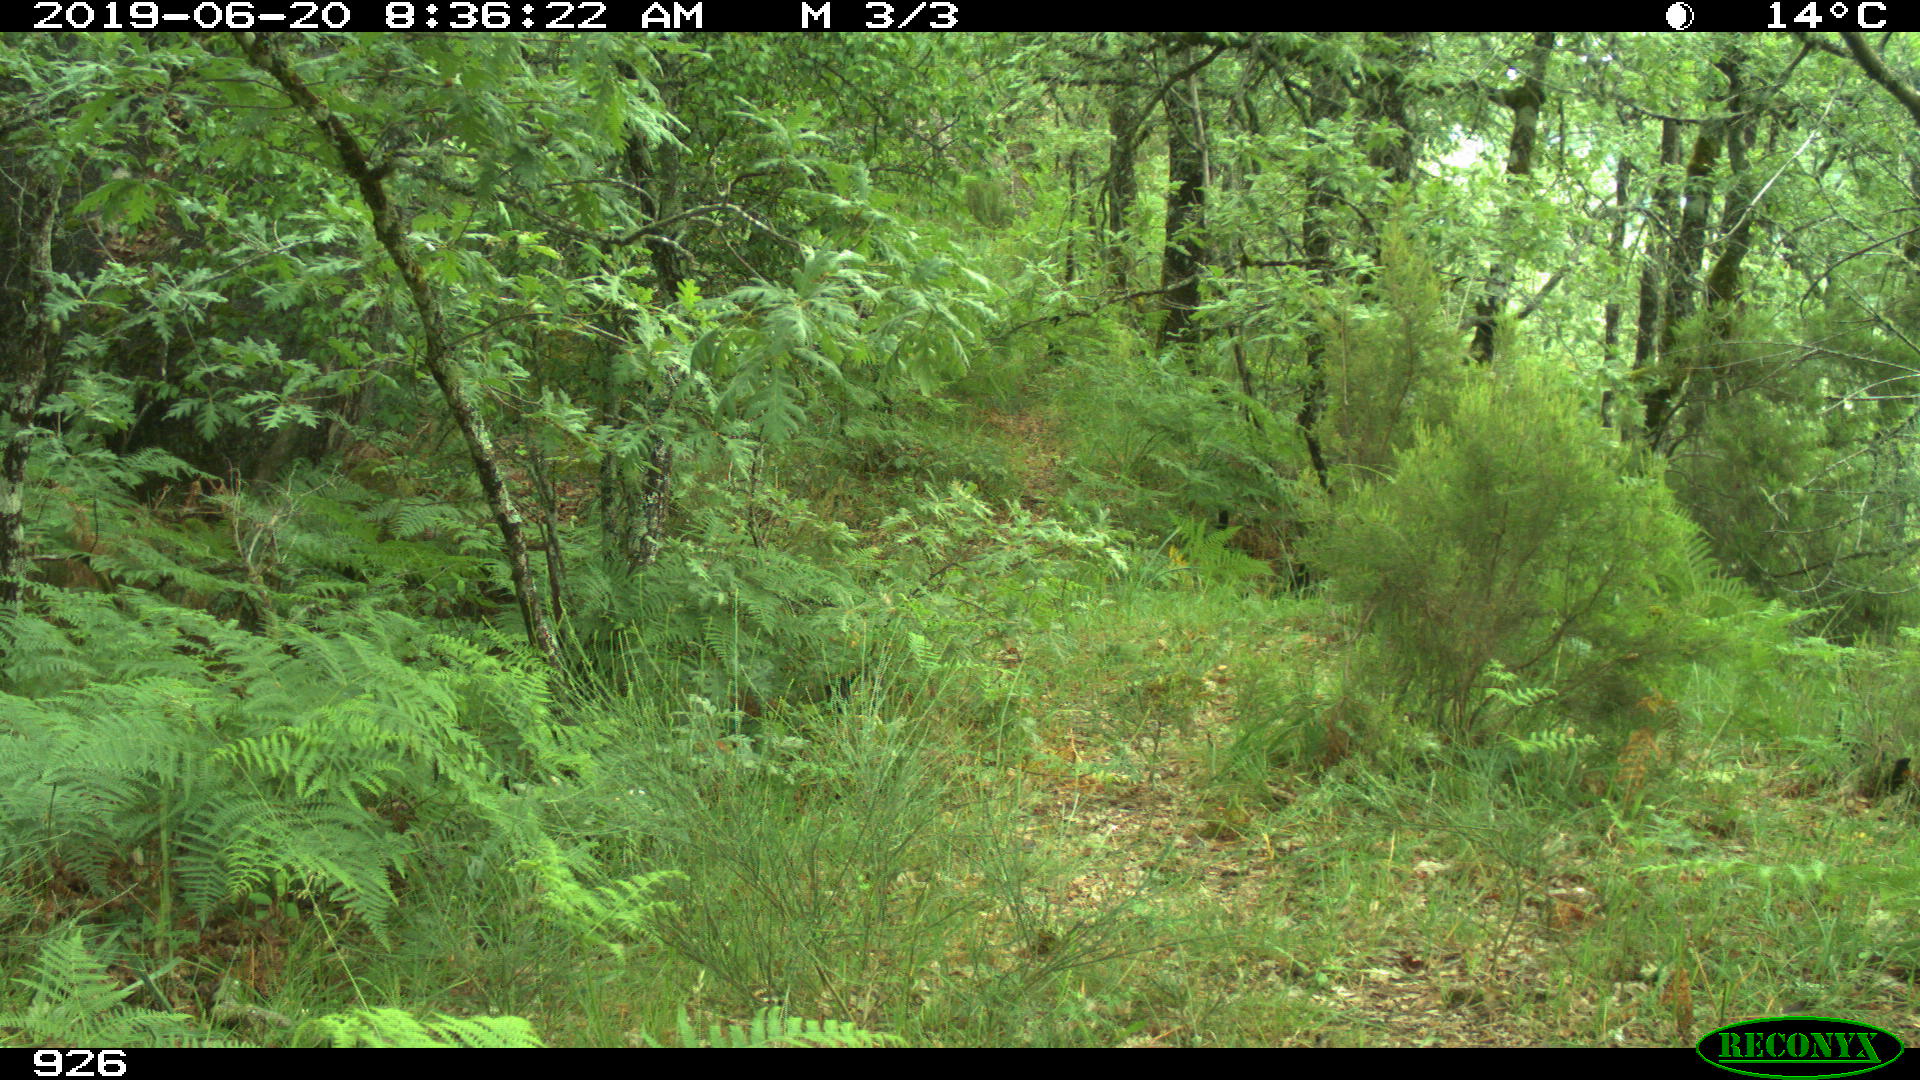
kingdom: Animalia
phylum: Chordata
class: Mammalia
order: Artiodactyla
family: Cervidae
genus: Capreolus
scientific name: Capreolus capreolus
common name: Western roe deer
